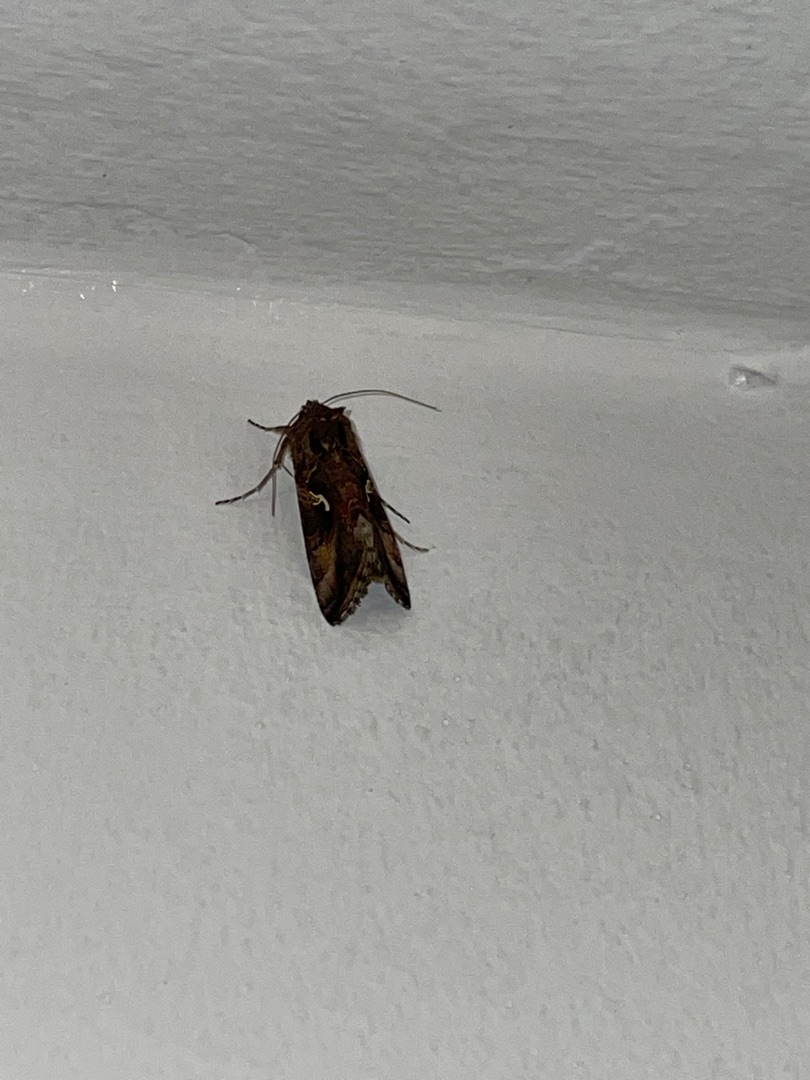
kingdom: Animalia
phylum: Arthropoda
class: Insecta
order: Lepidoptera
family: Noctuidae
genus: Autographa
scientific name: Autographa gamma
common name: Gammaugle
